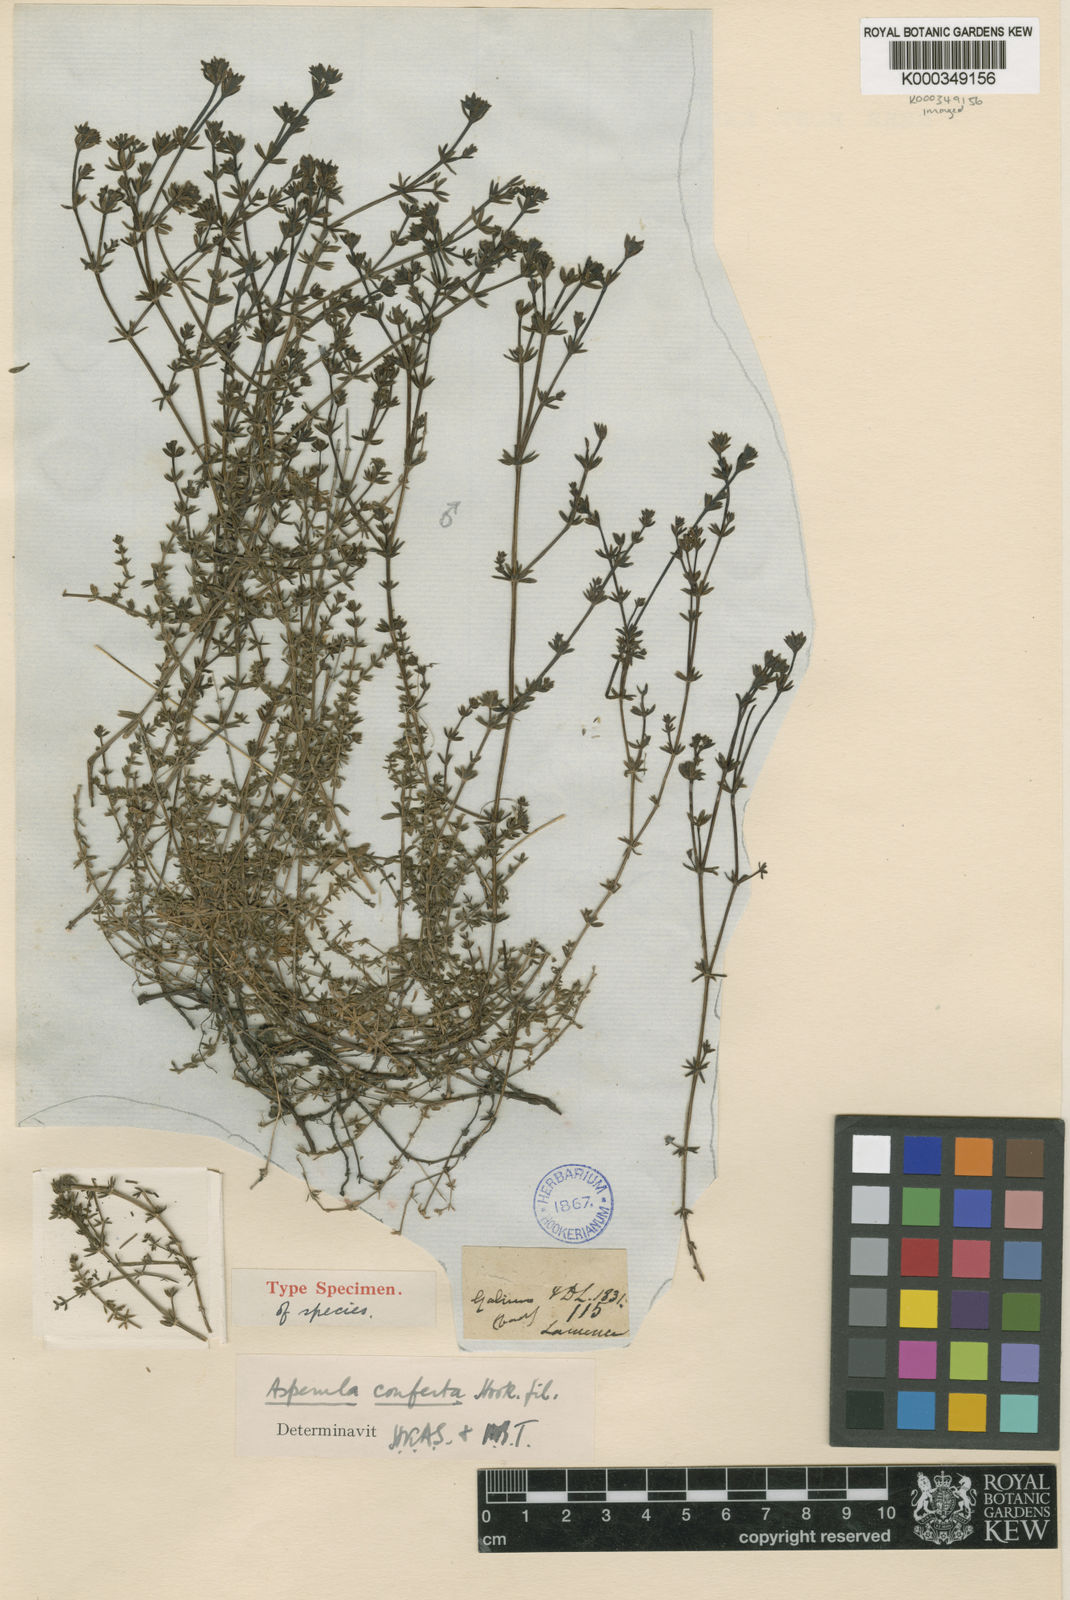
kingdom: Plantae
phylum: Tracheophyta
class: Magnoliopsida
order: Gentianales
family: Rubiaceae
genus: Asperula
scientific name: Asperula conferta
